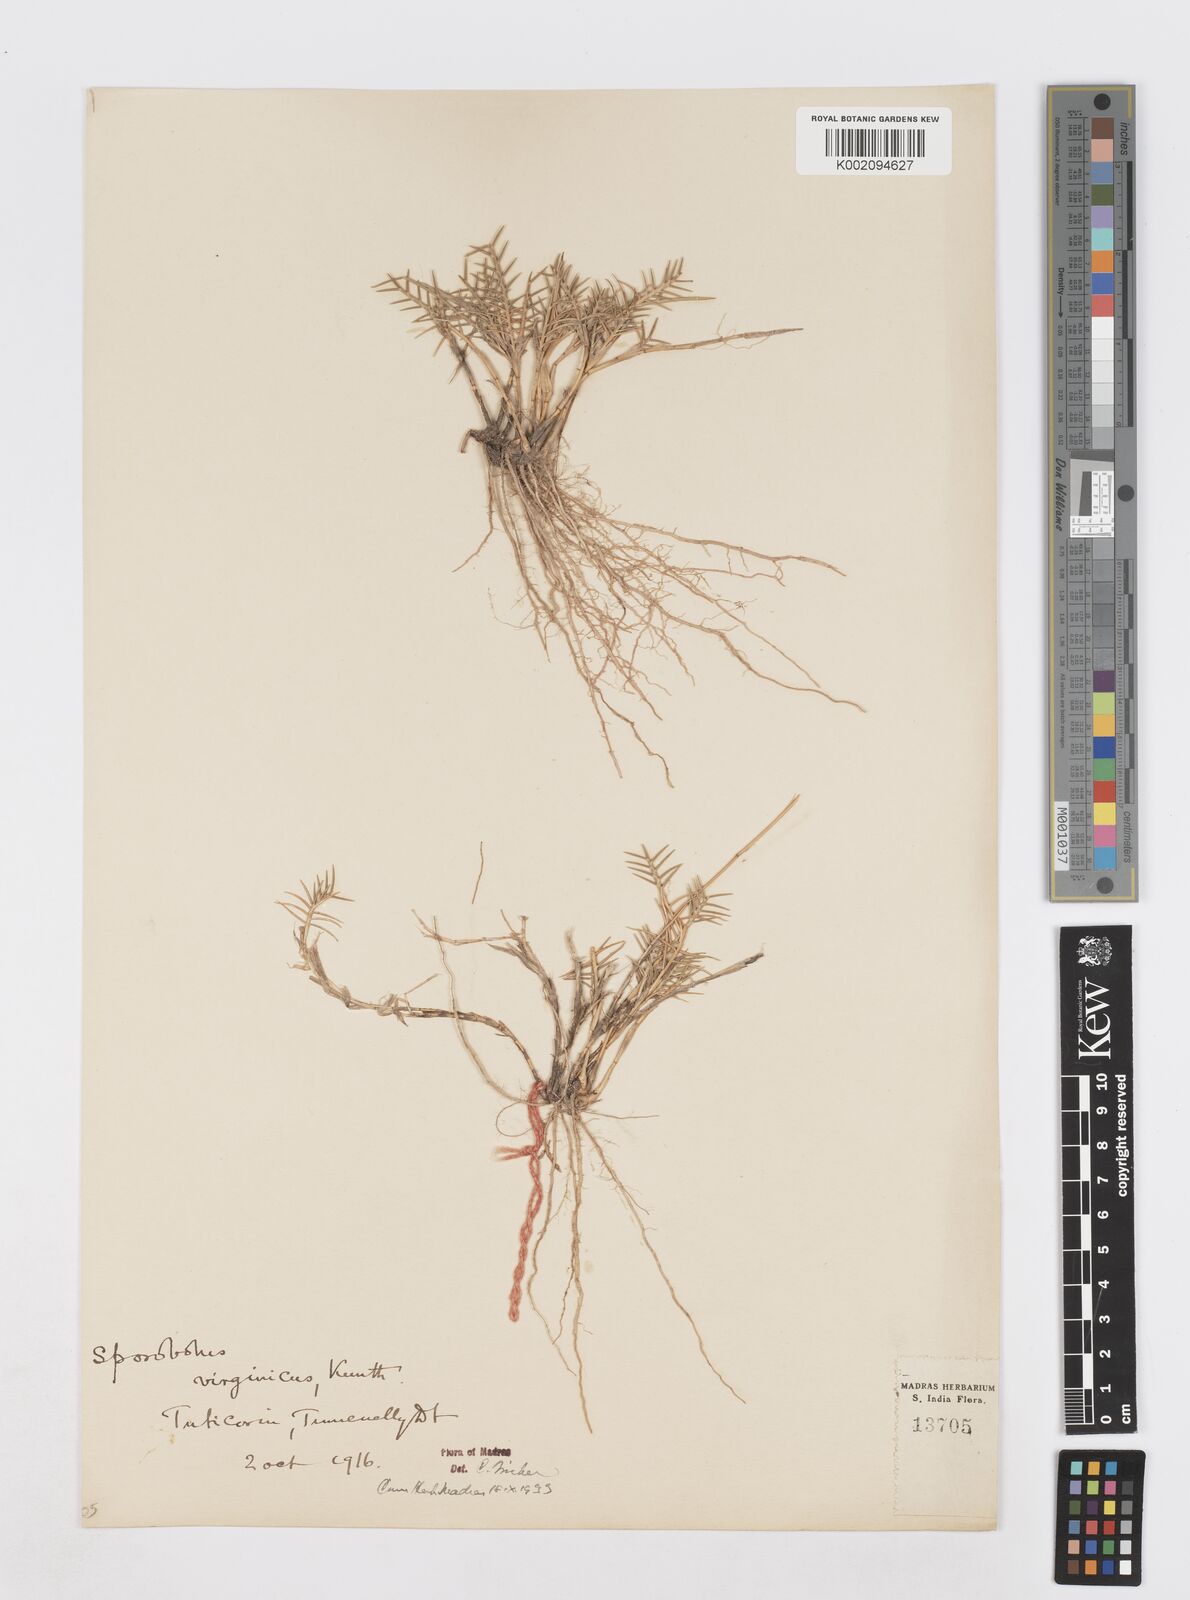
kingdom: Plantae
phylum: Tracheophyta
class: Liliopsida
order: Poales
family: Poaceae
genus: Sporobolus
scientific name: Sporobolus virginicus
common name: Beach dropseed
